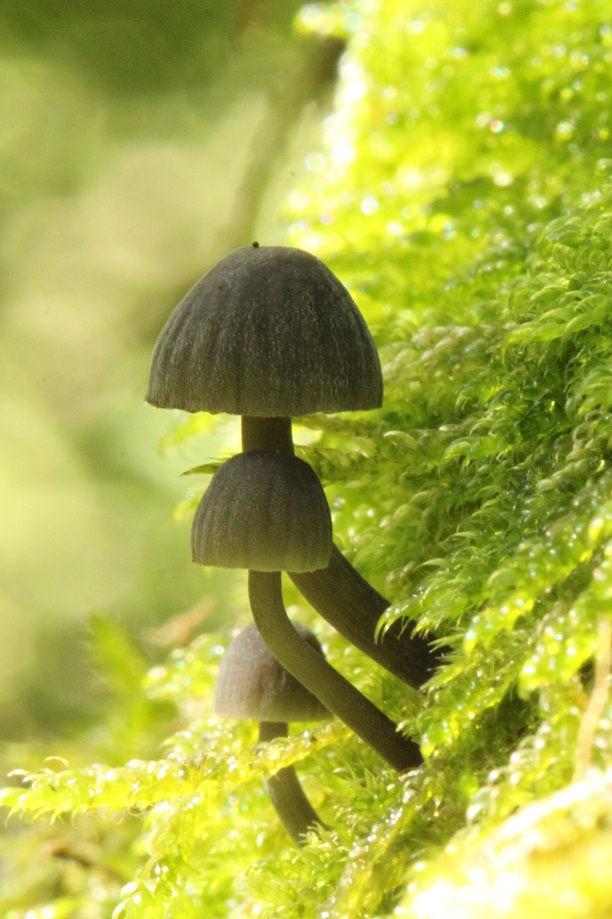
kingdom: Fungi
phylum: Basidiomycota
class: Agaricomycetes
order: Agaricales
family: Mycenaceae
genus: Mycena
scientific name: Mycena pseudocorticola
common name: gråblå bark-huesvamp
